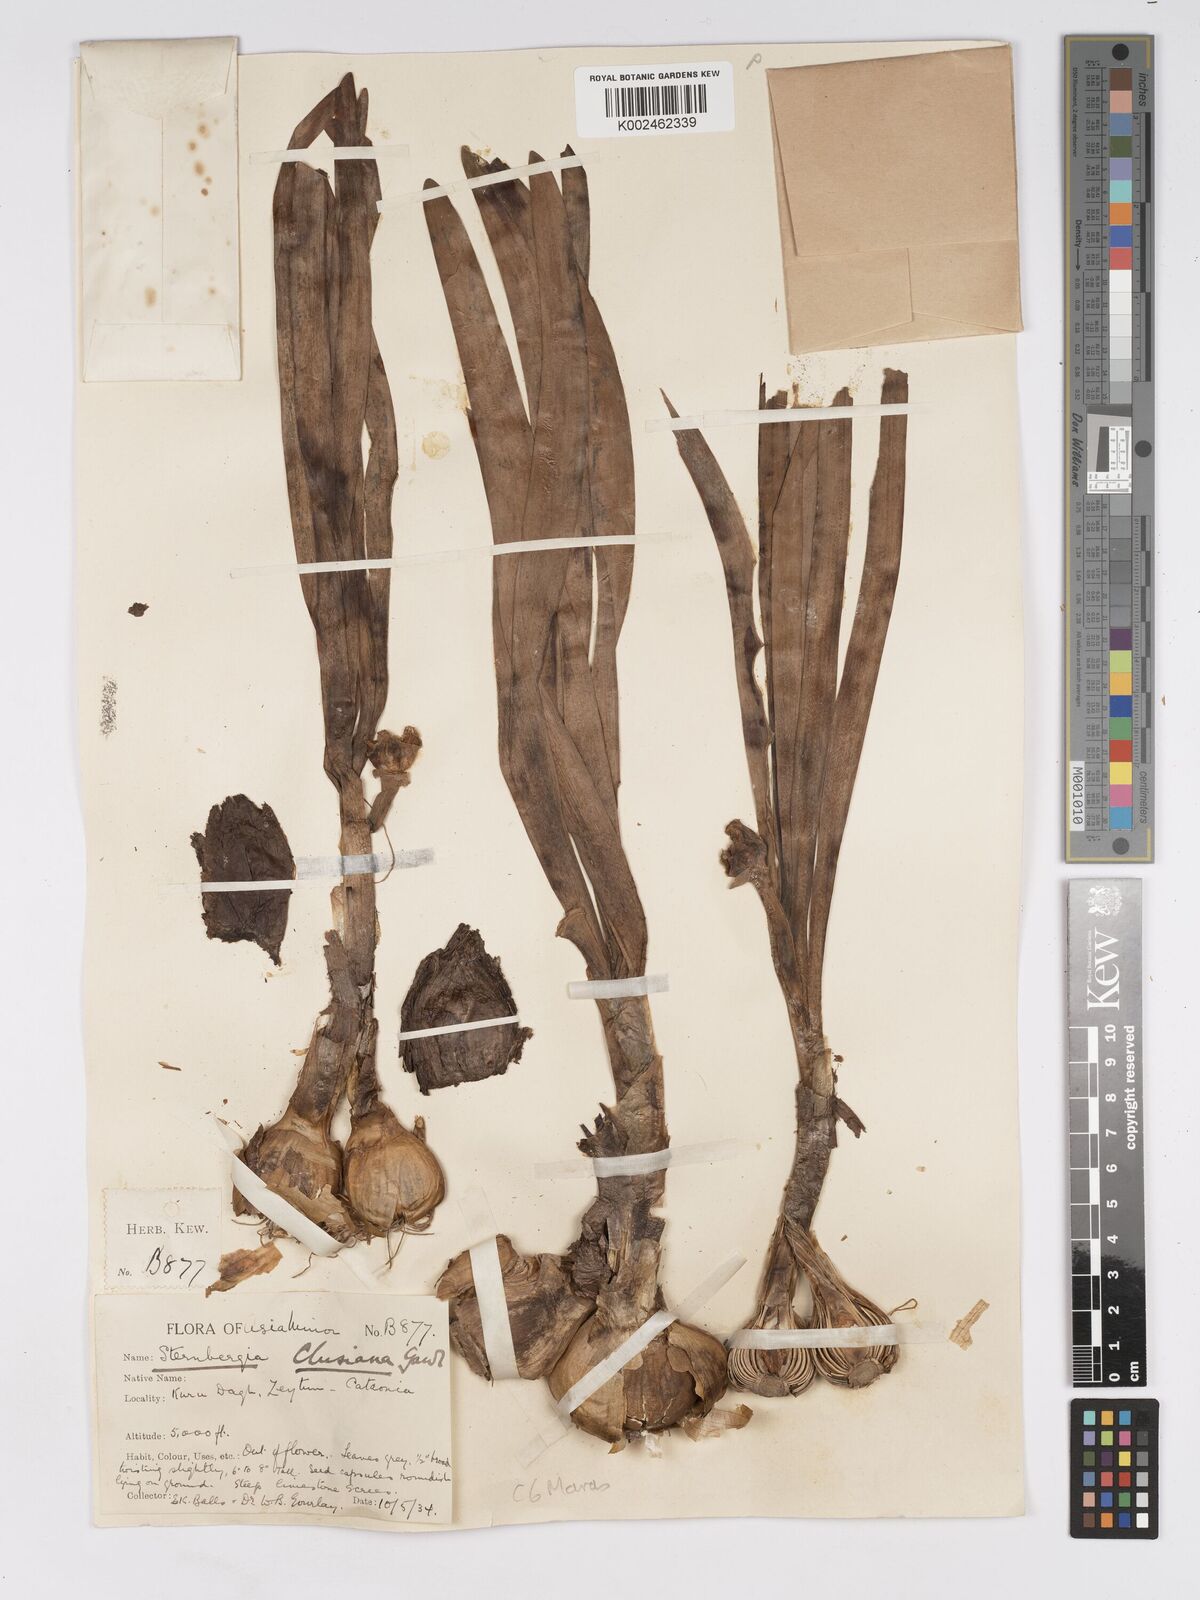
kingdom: Plantae
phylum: Tracheophyta
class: Liliopsida
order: Asparagales
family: Amaryllidaceae
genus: Sternbergia
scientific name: Sternbergia clusiana
